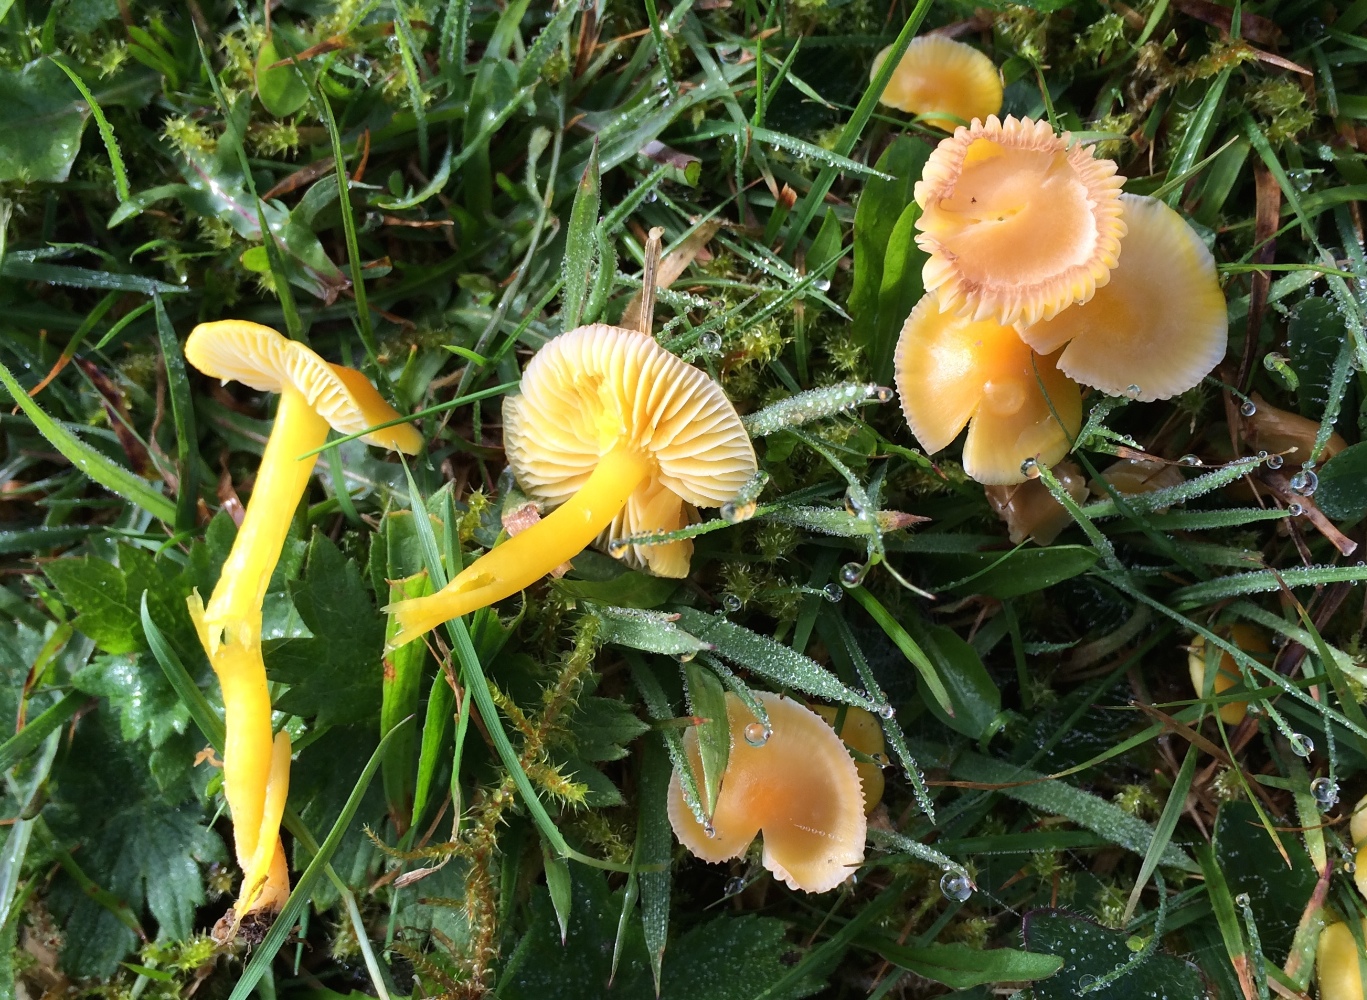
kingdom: Fungi
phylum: Basidiomycota
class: Agaricomycetes
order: Agaricales
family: Hygrophoraceae
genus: Hygrocybe
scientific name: Hygrocybe ceracea
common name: voksgul vokshat
